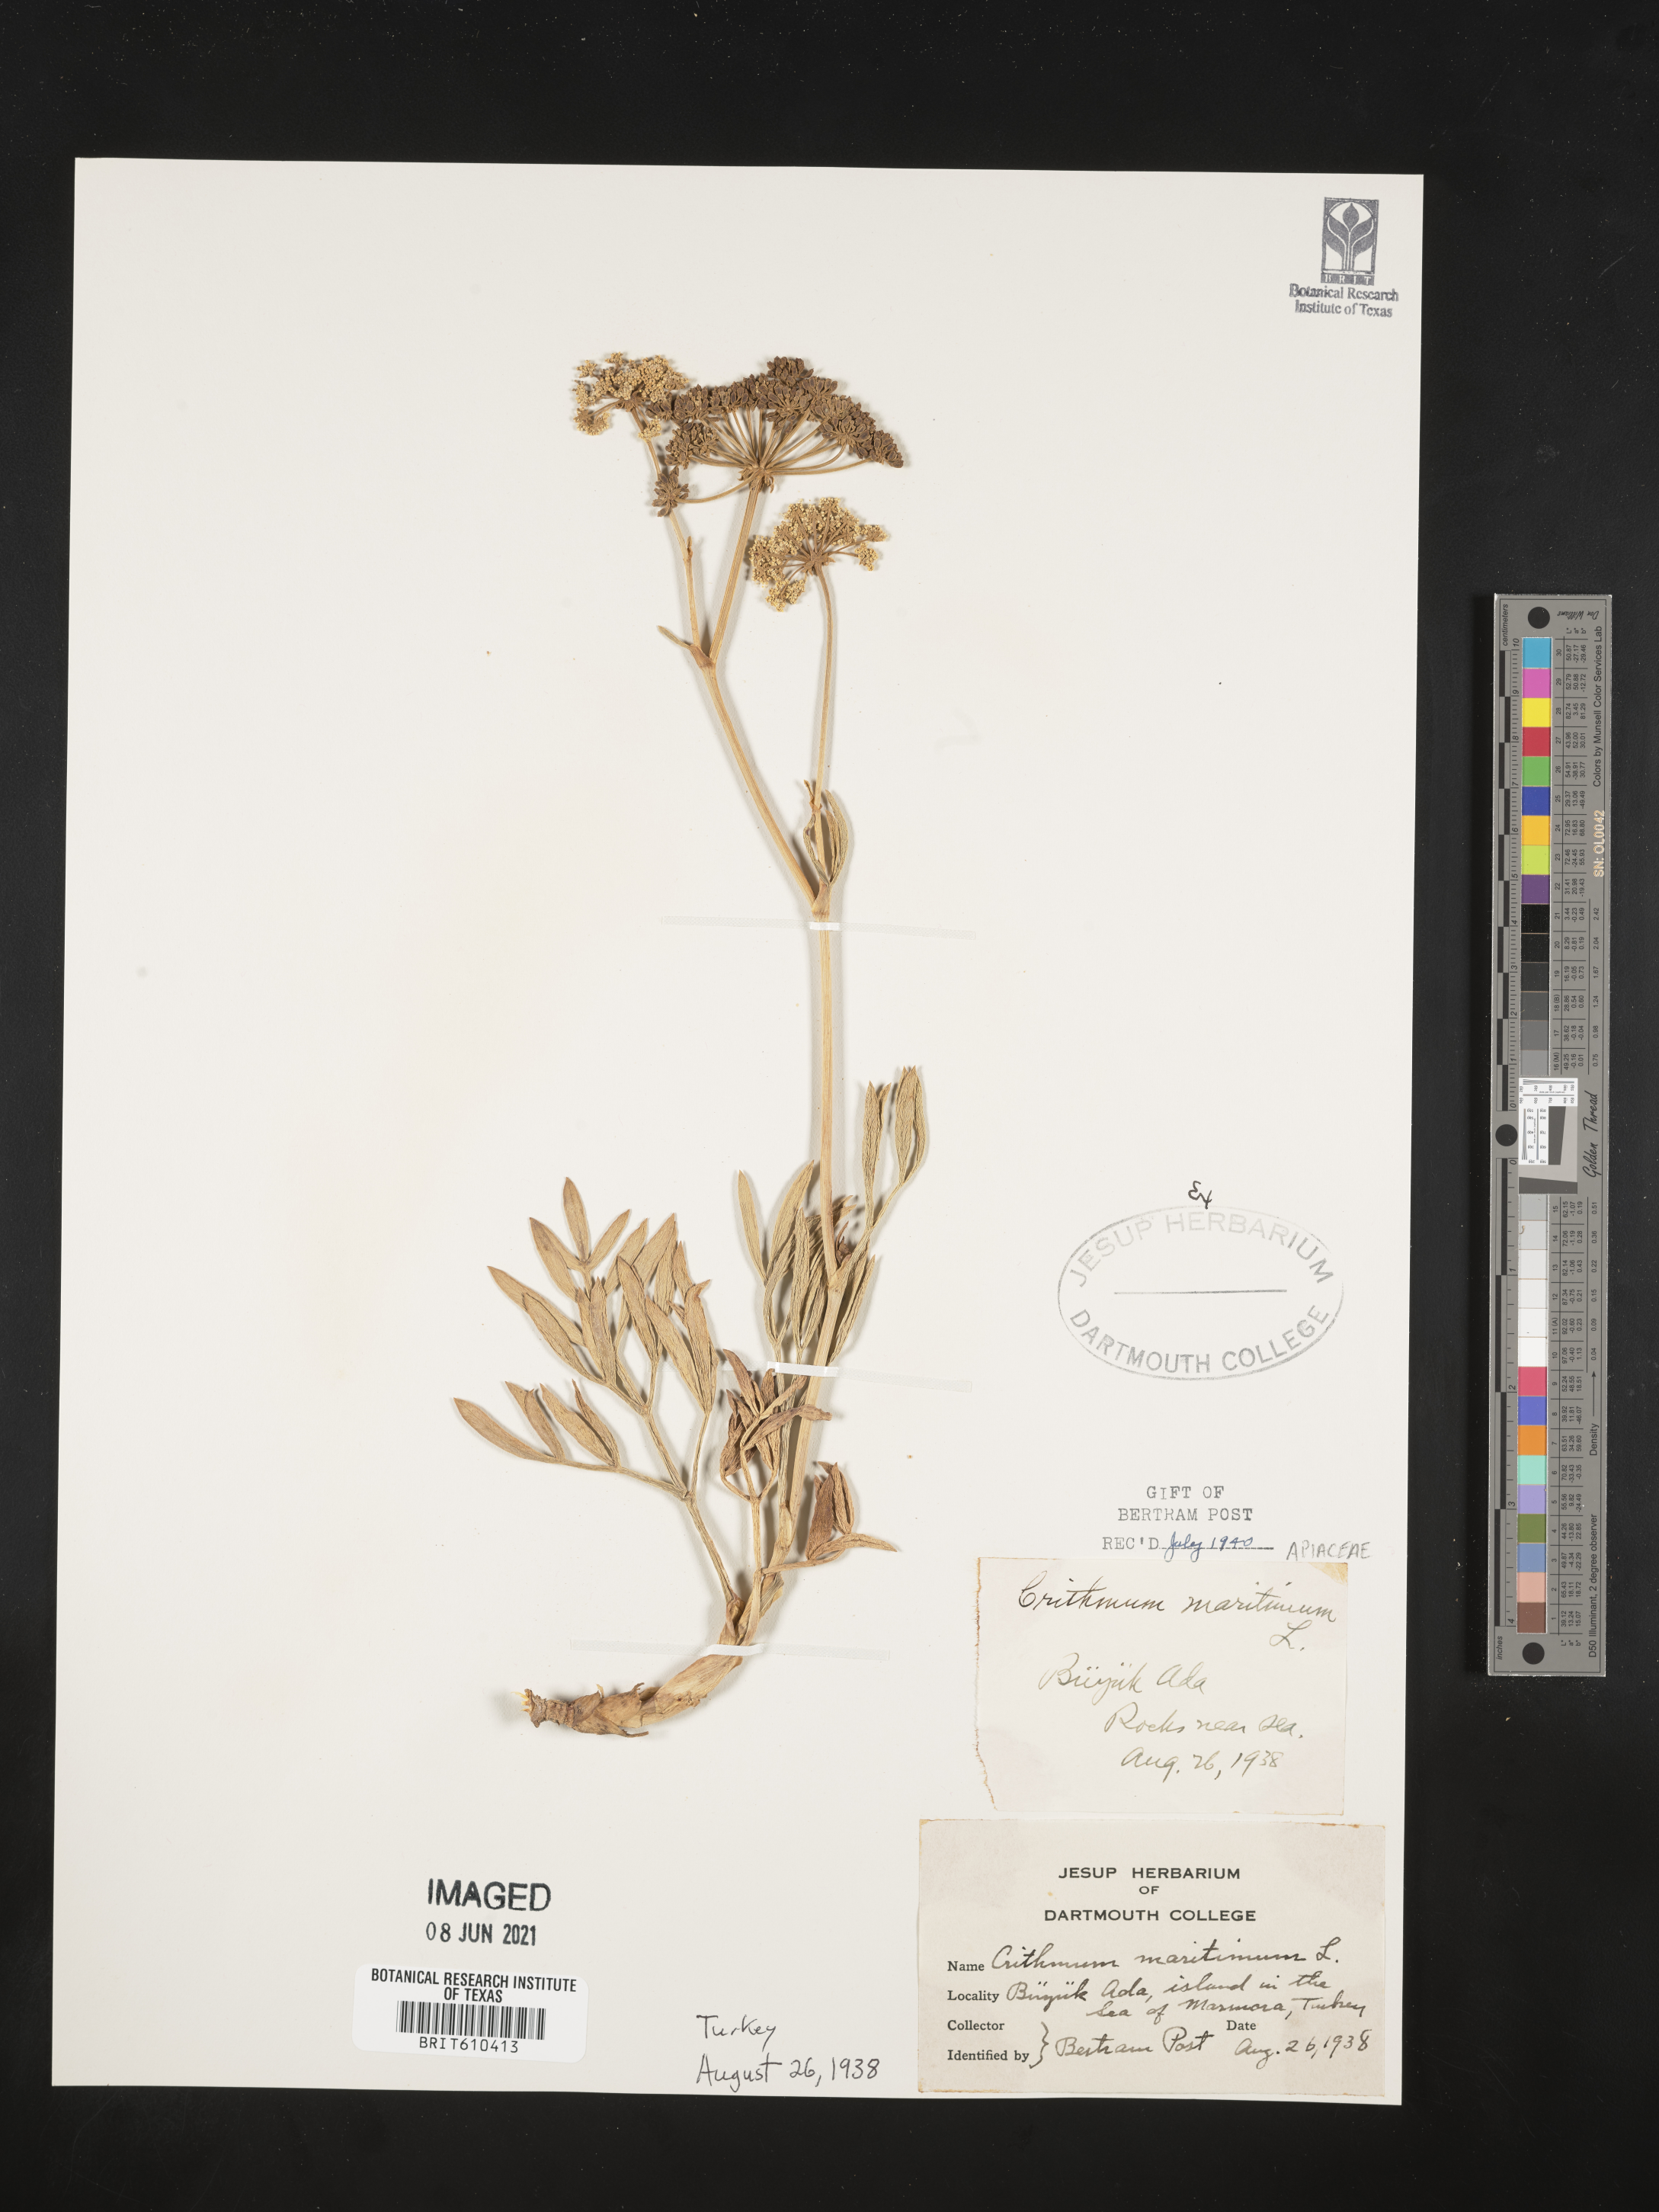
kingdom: Plantae
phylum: Tracheophyta
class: Magnoliopsida
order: Apiales
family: Apiaceae
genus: Crithmum
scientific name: Crithmum maritimum
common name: Rock samphire
